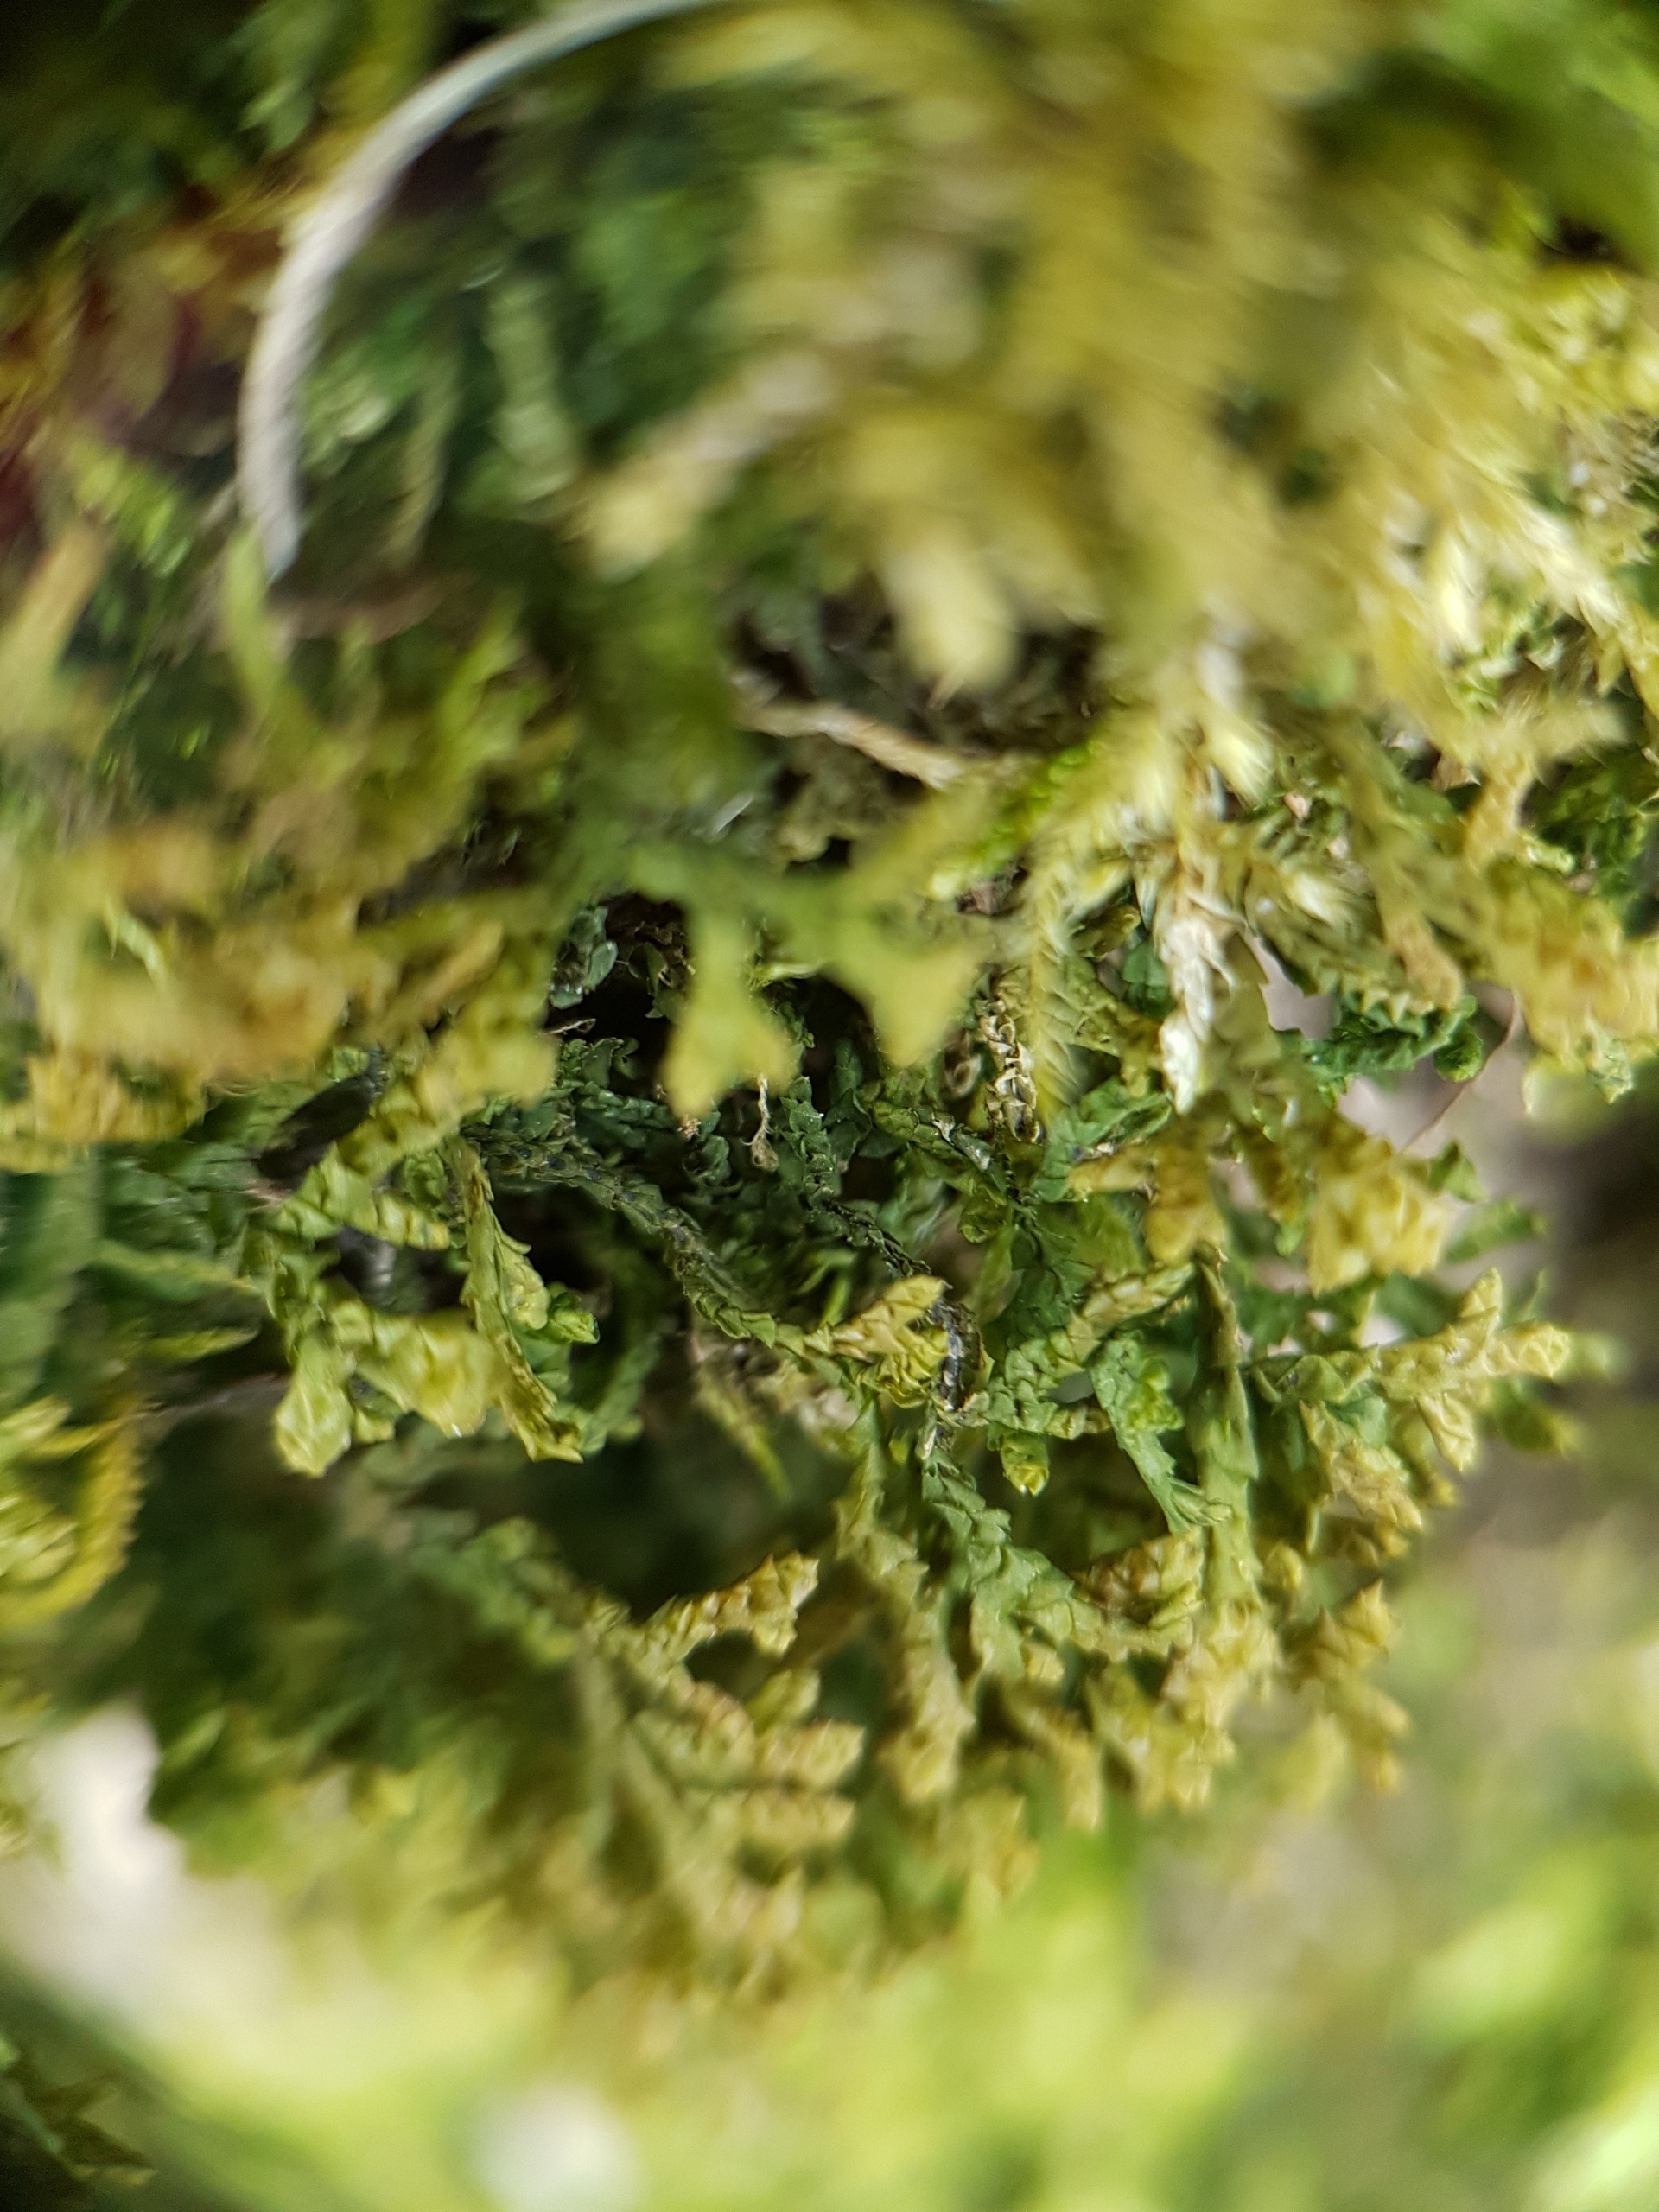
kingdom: Plantae
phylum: Marchantiophyta
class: Jungermanniopsida
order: Porellales
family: Porellaceae
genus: Porella
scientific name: Porella platyphylla
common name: Almindelig skælryg
